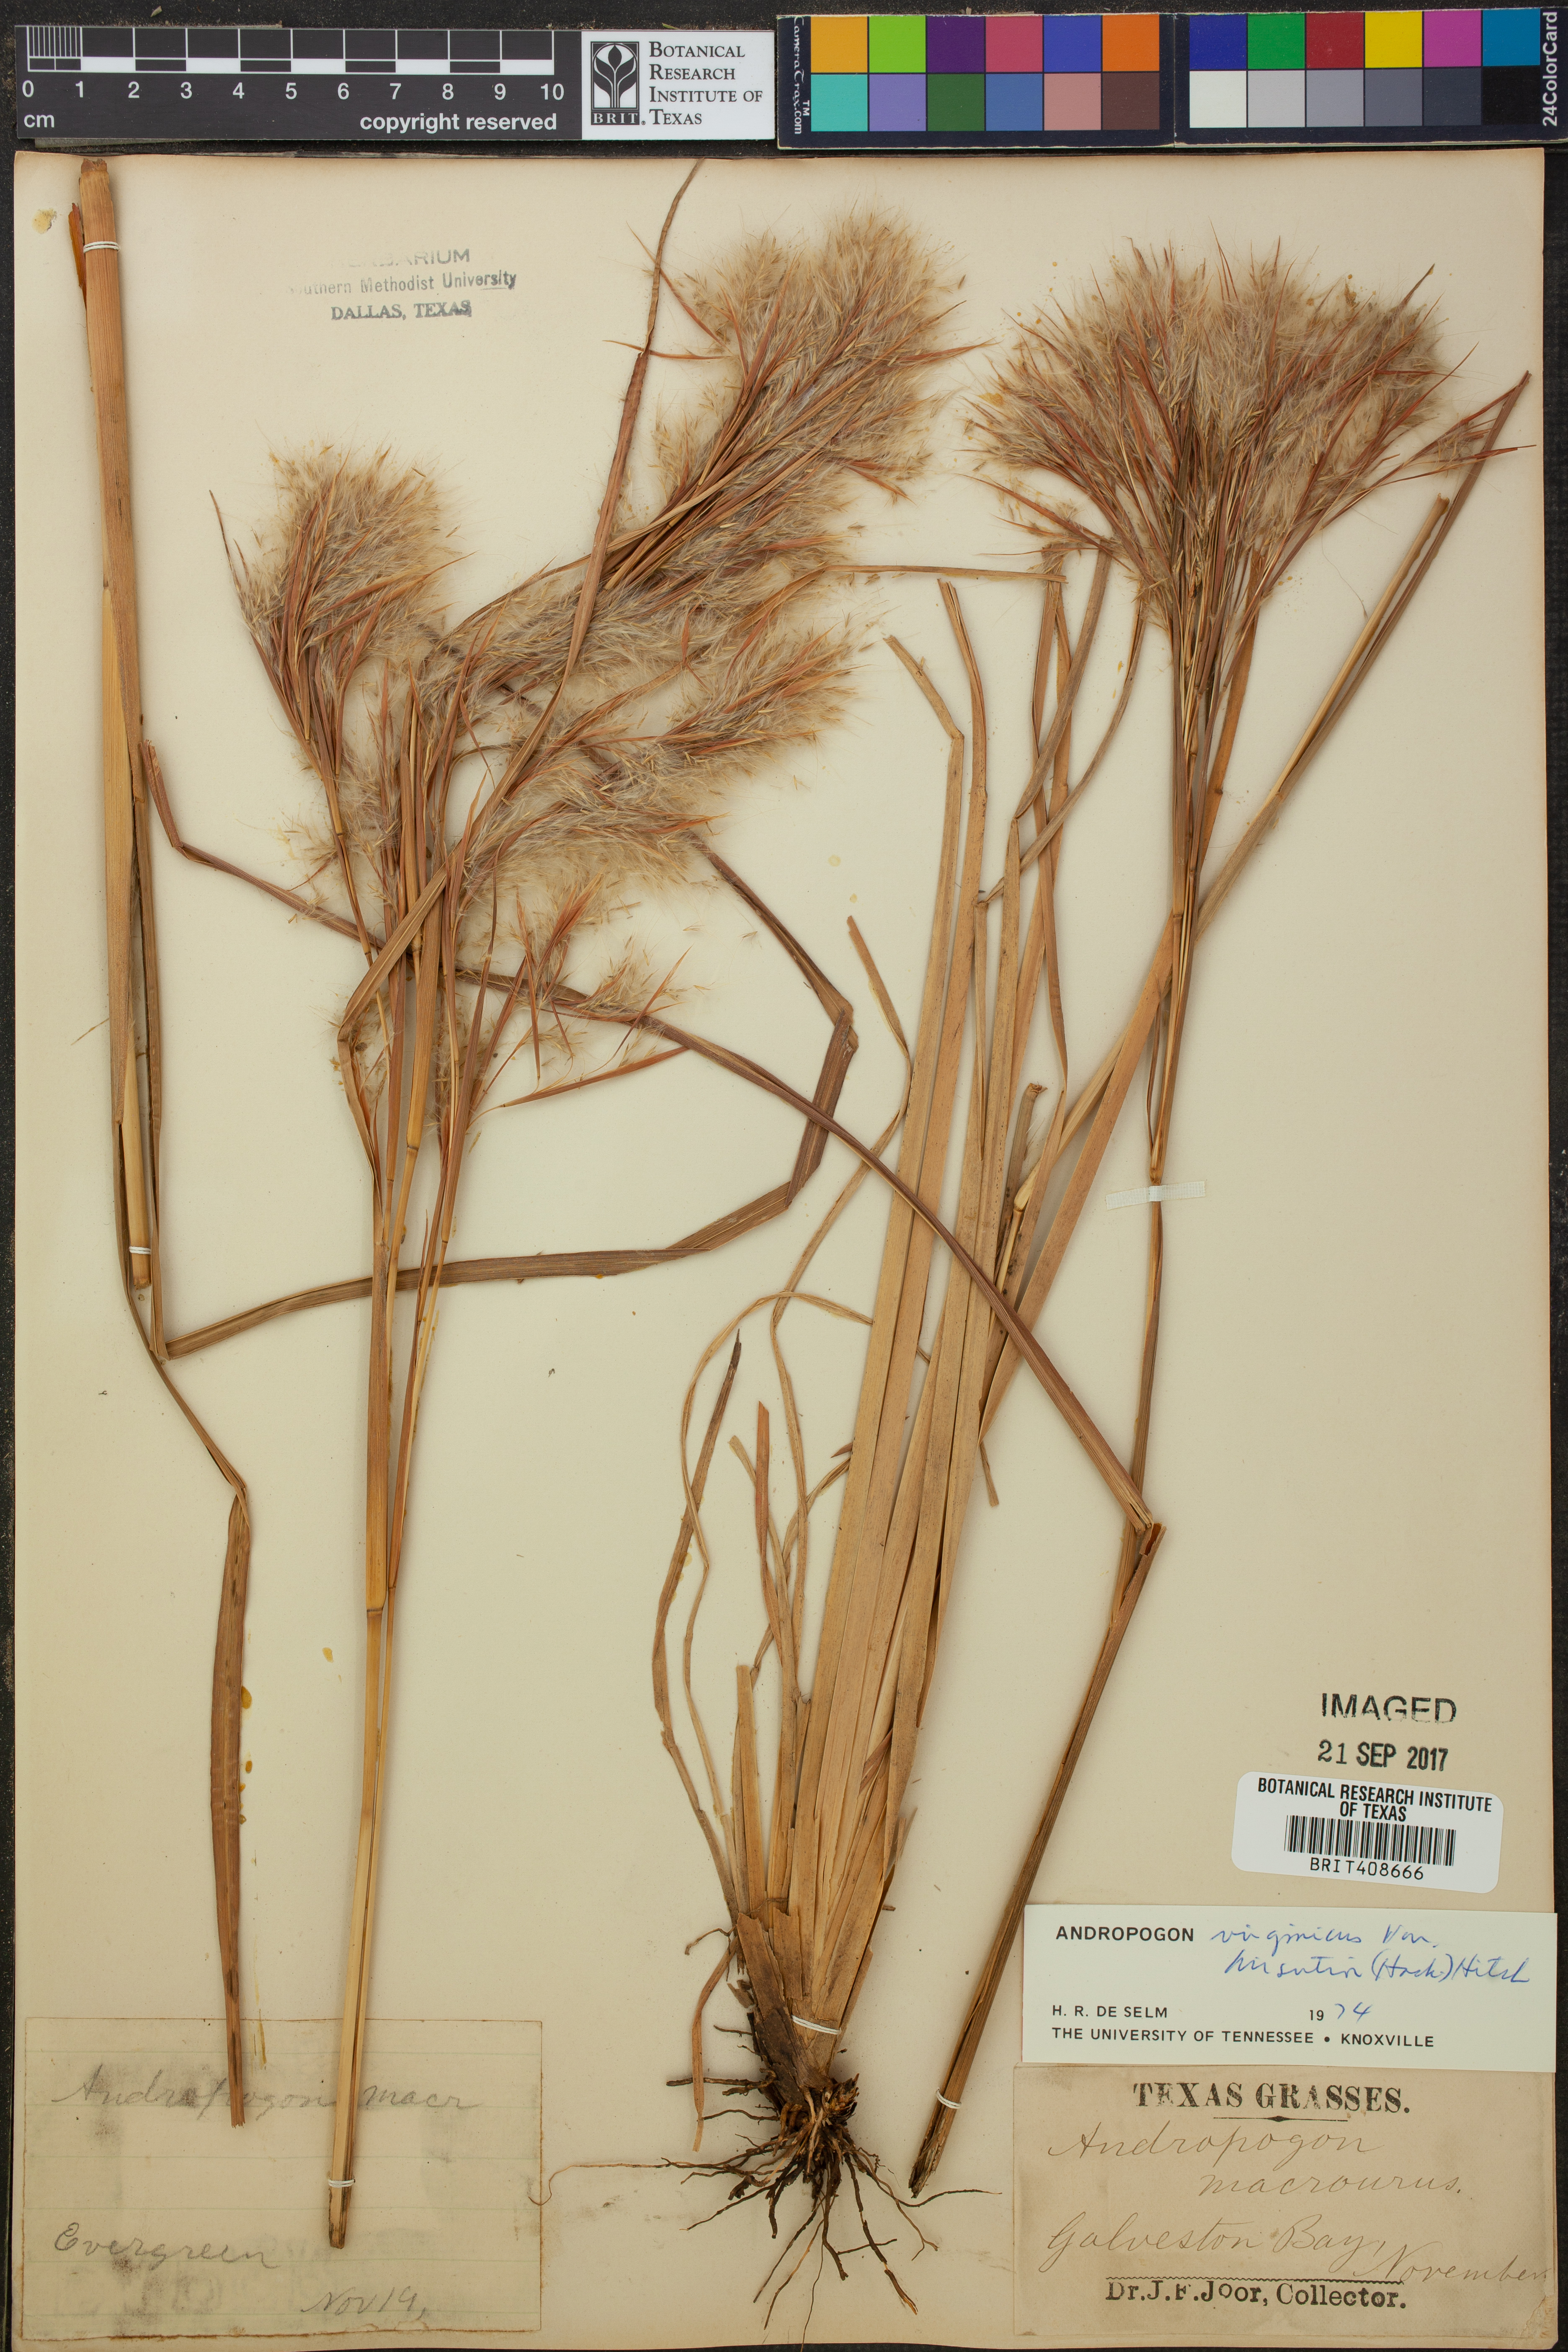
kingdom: Plantae
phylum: Tracheophyta
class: Liliopsida
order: Poales
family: Poaceae
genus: Andropogon
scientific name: Andropogon hirsutior
